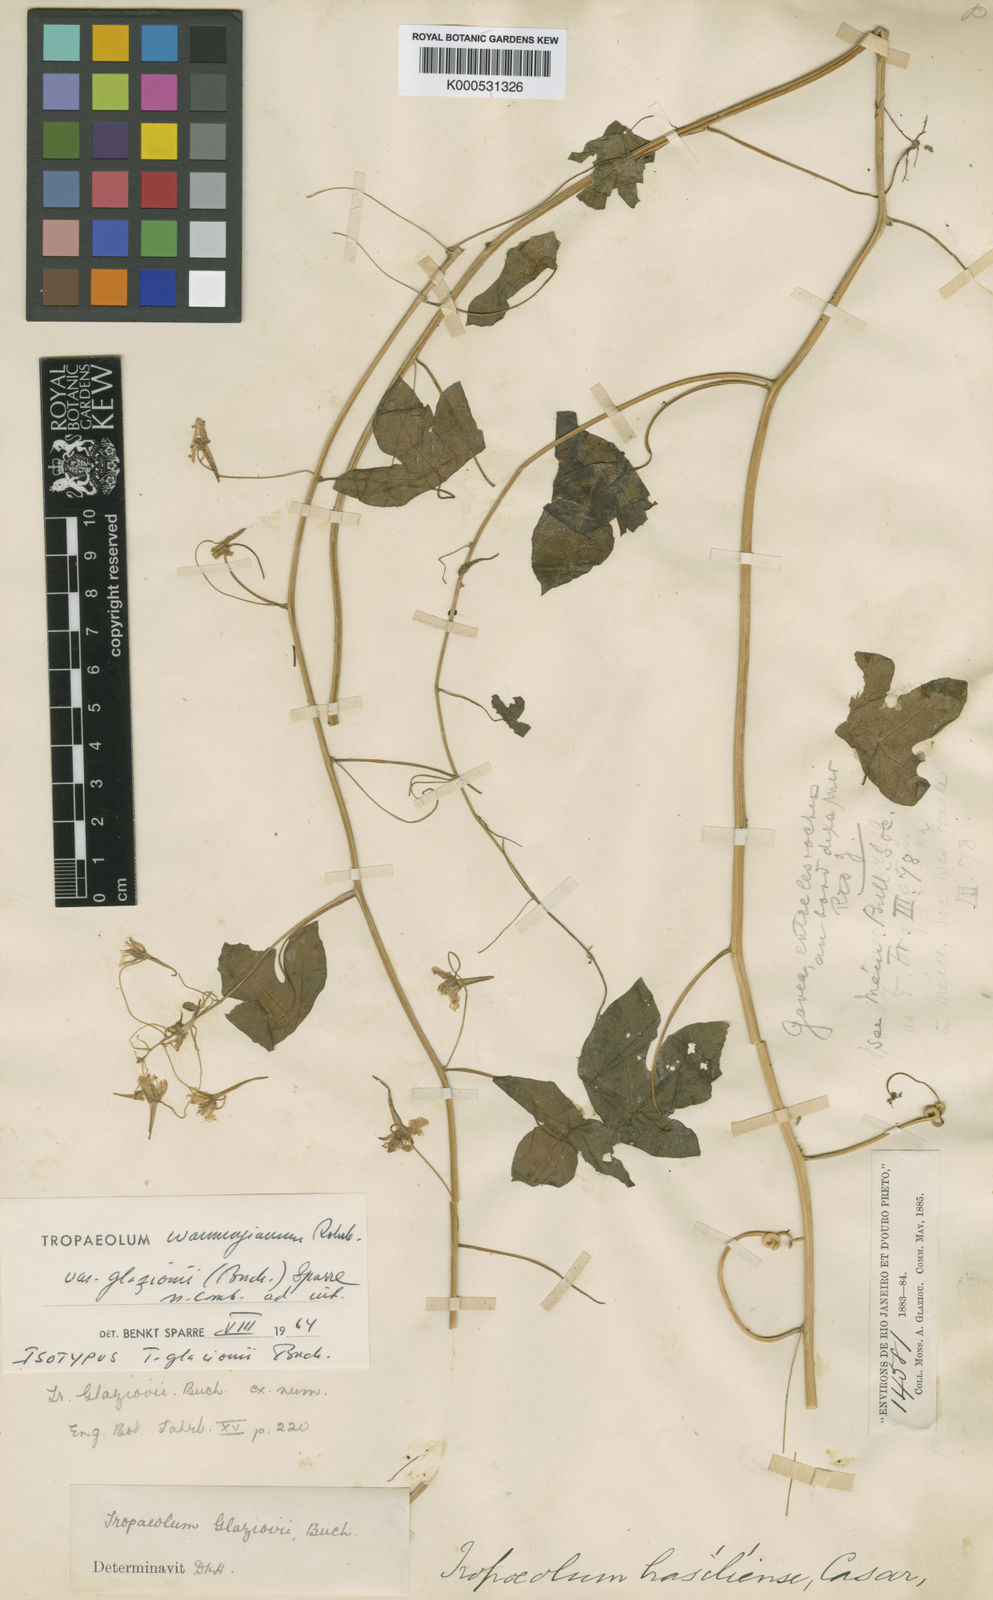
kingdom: Plantae
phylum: Tracheophyta
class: Magnoliopsida
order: Brassicales
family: Tropaeolaceae
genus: Tropaeolum
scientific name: Tropaeolum warmingianum
